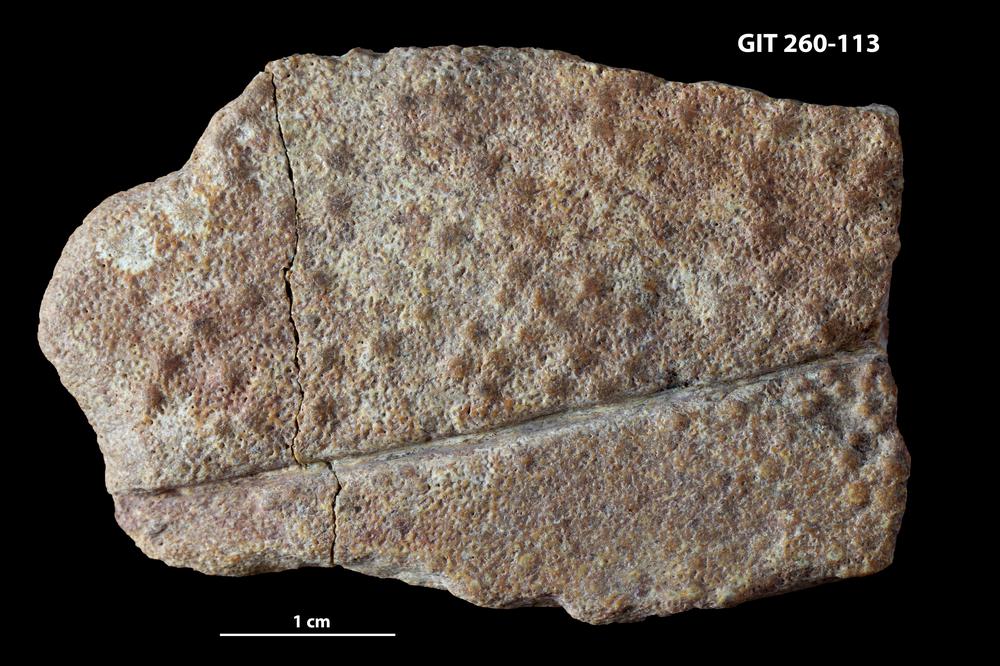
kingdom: Animalia
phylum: Chordata
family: Homostiidae
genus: Homostius
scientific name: Homostius
